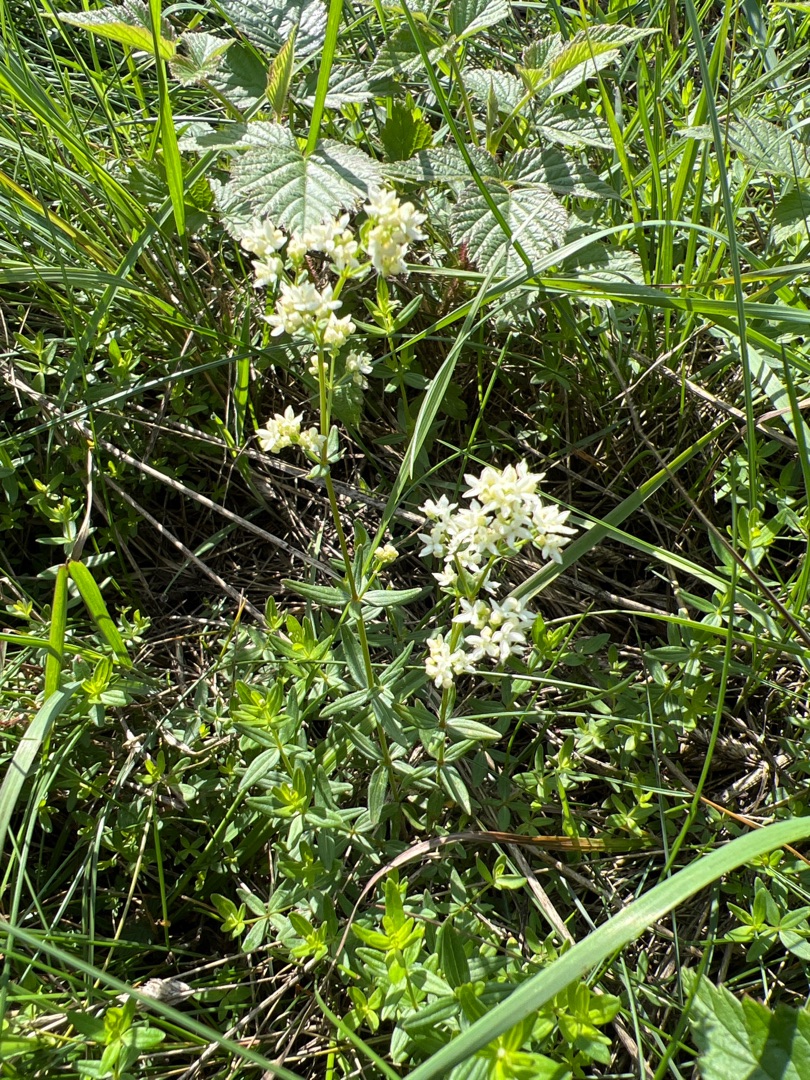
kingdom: Plantae
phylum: Tracheophyta
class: Magnoliopsida
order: Gentianales
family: Rubiaceae
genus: Galium
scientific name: Galium boreale
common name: Trenervet snerre
